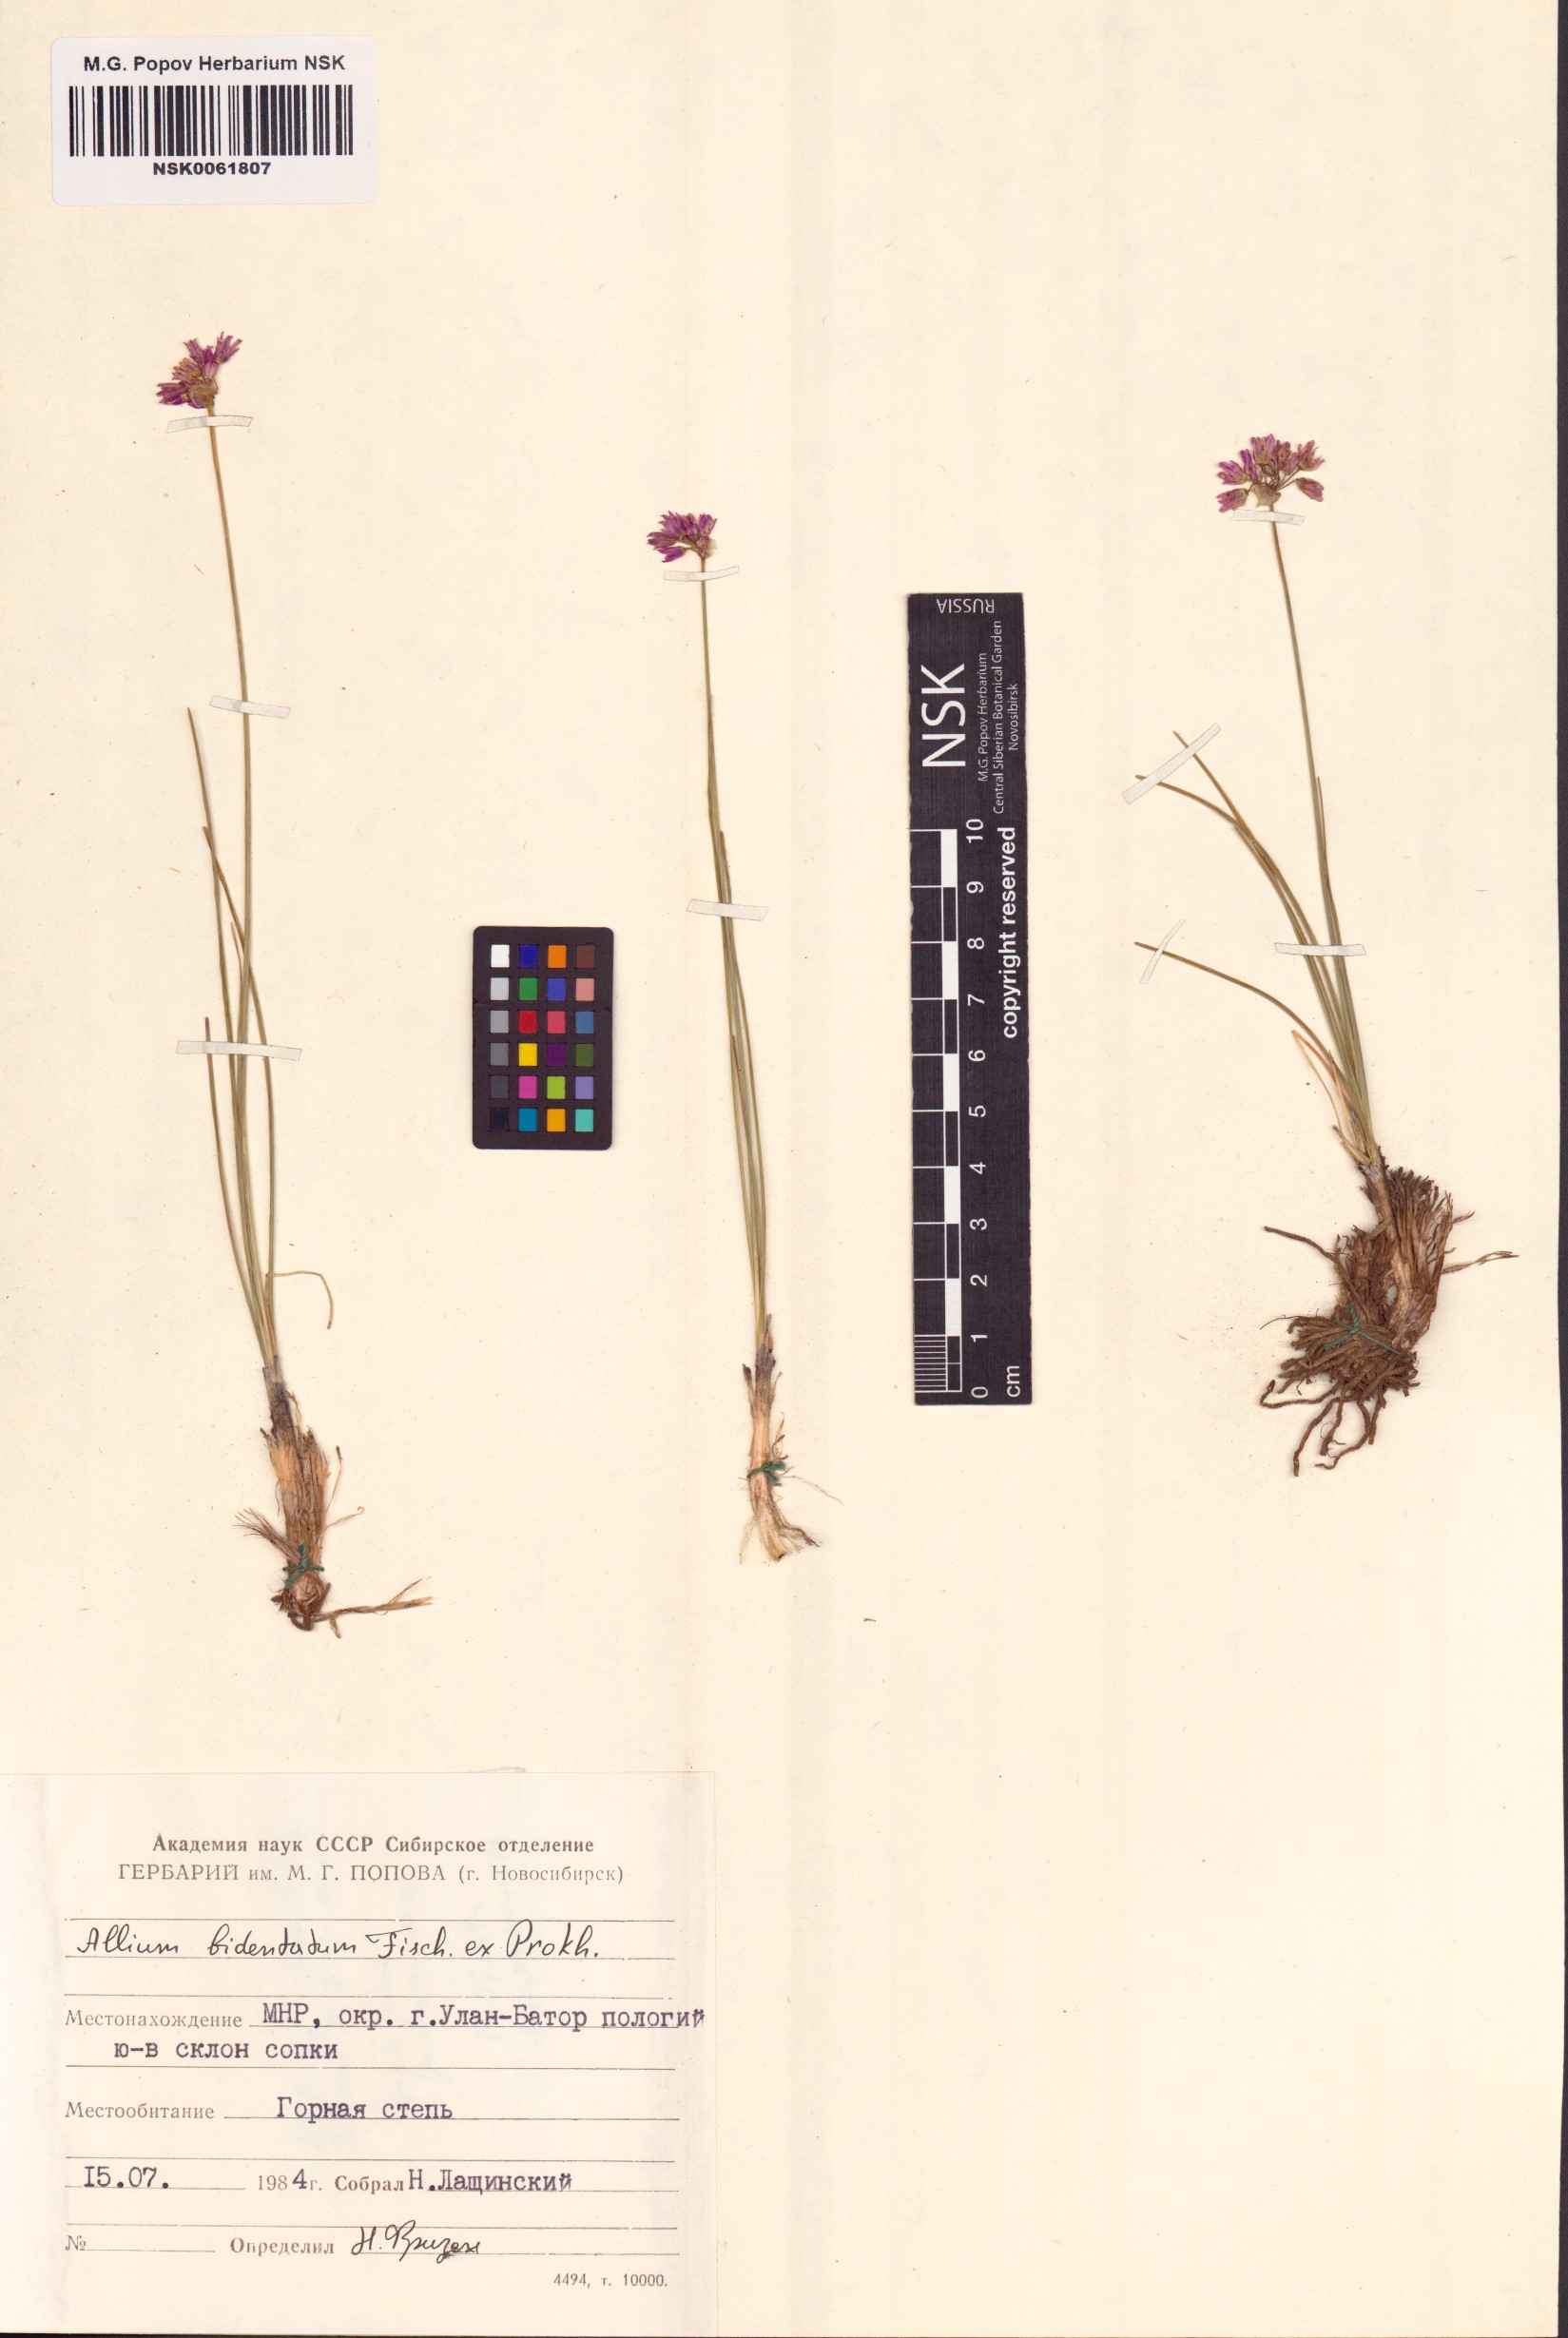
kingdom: Plantae
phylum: Tracheophyta
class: Liliopsida
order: Asparagales
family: Amaryllidaceae
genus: Allium
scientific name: Allium bidentatum
